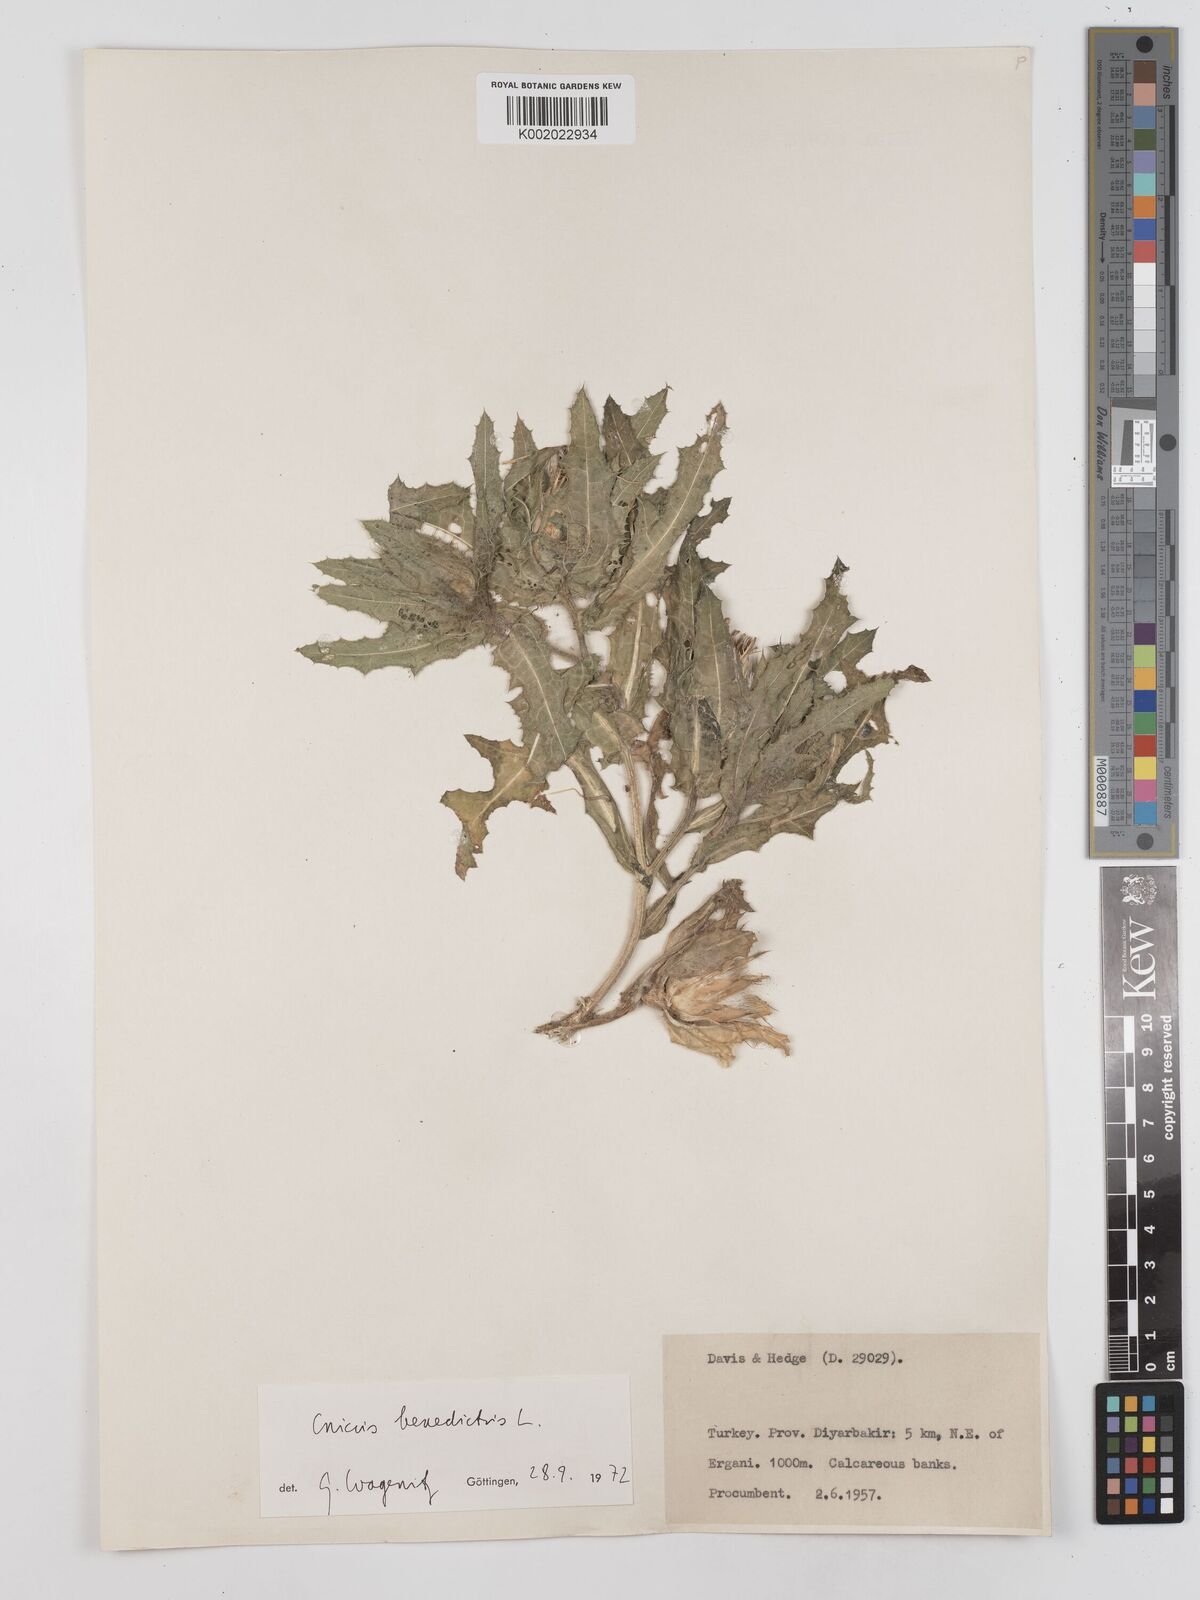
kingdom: Plantae
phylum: Tracheophyta
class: Magnoliopsida
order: Asterales
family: Asteraceae
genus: Centaurea
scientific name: Centaurea benedicta
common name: Blessed thistle
